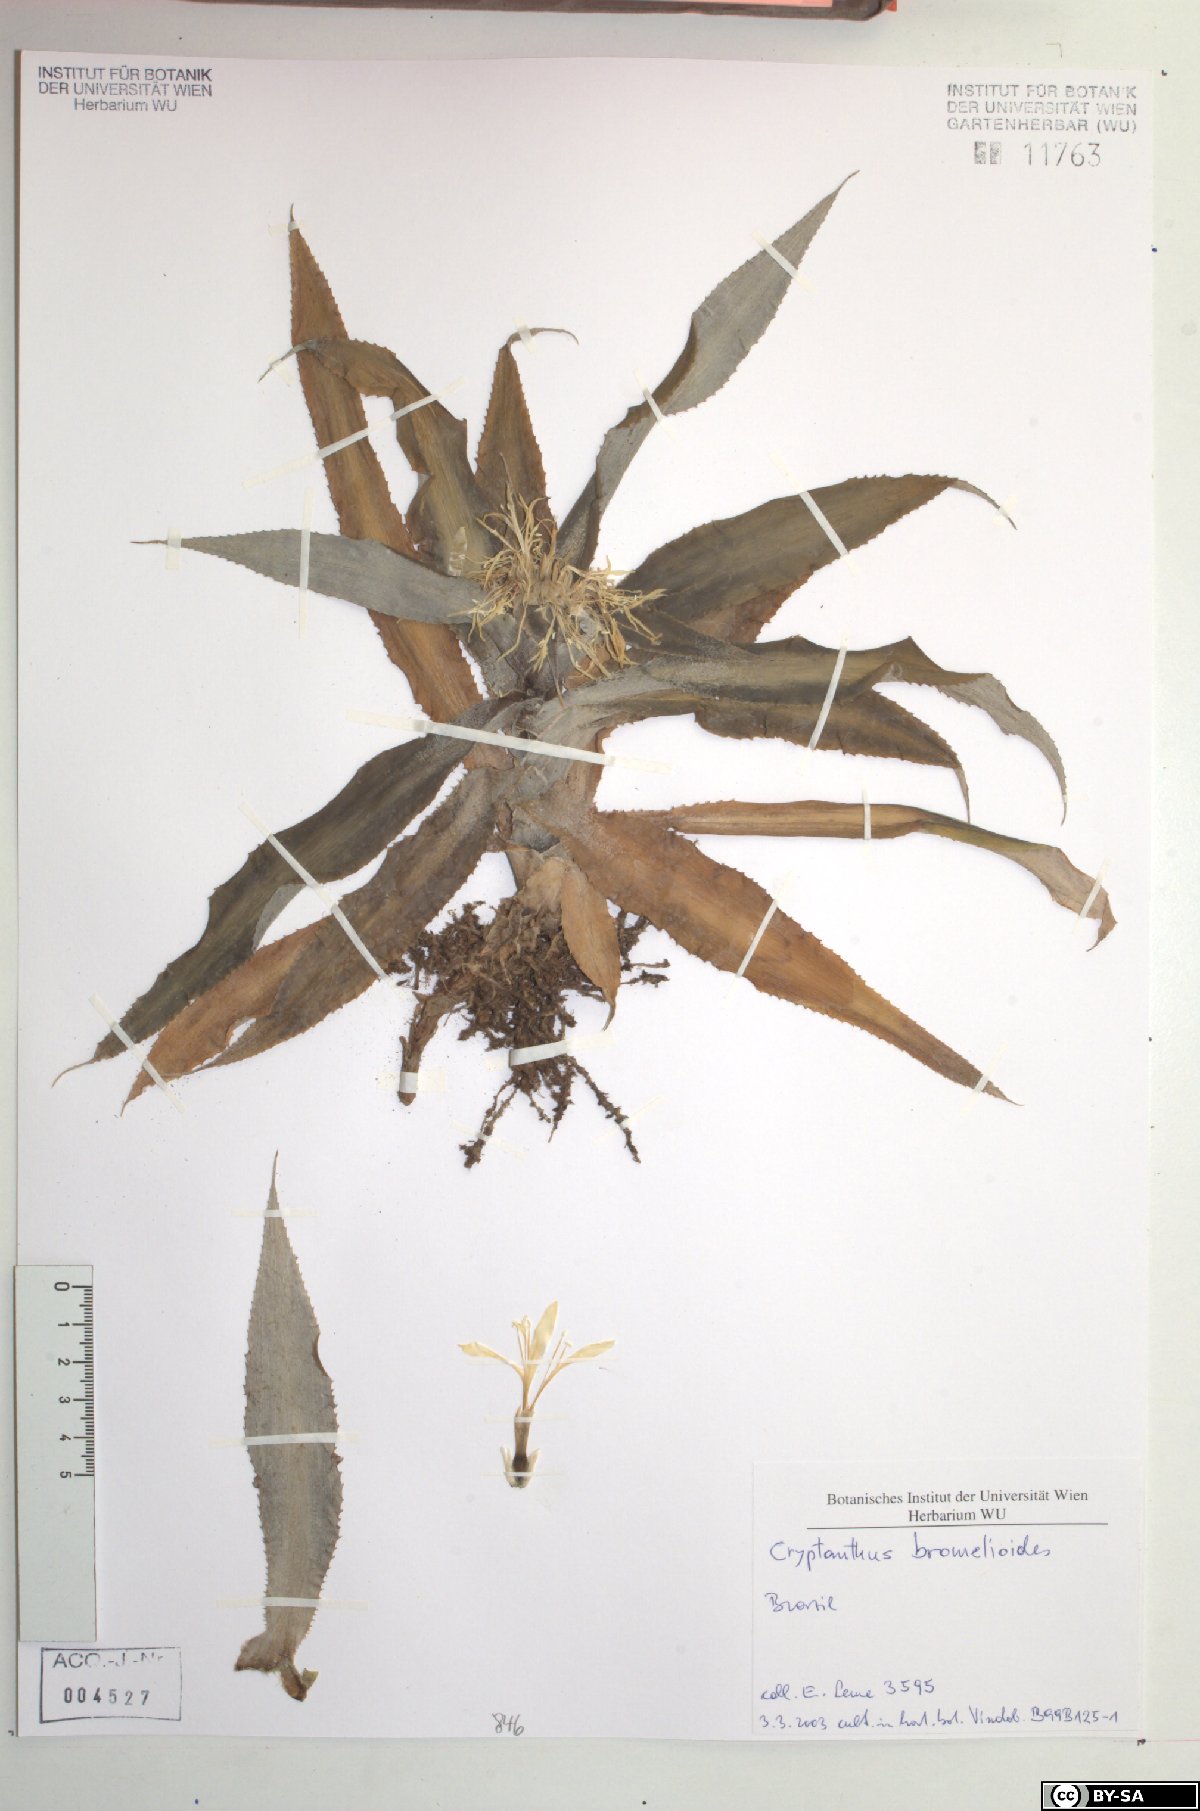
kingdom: Plantae
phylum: Tracheophyta
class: Liliopsida
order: Poales
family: Bromeliaceae
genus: Cryptanthus
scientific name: Cryptanthus bromelioides
